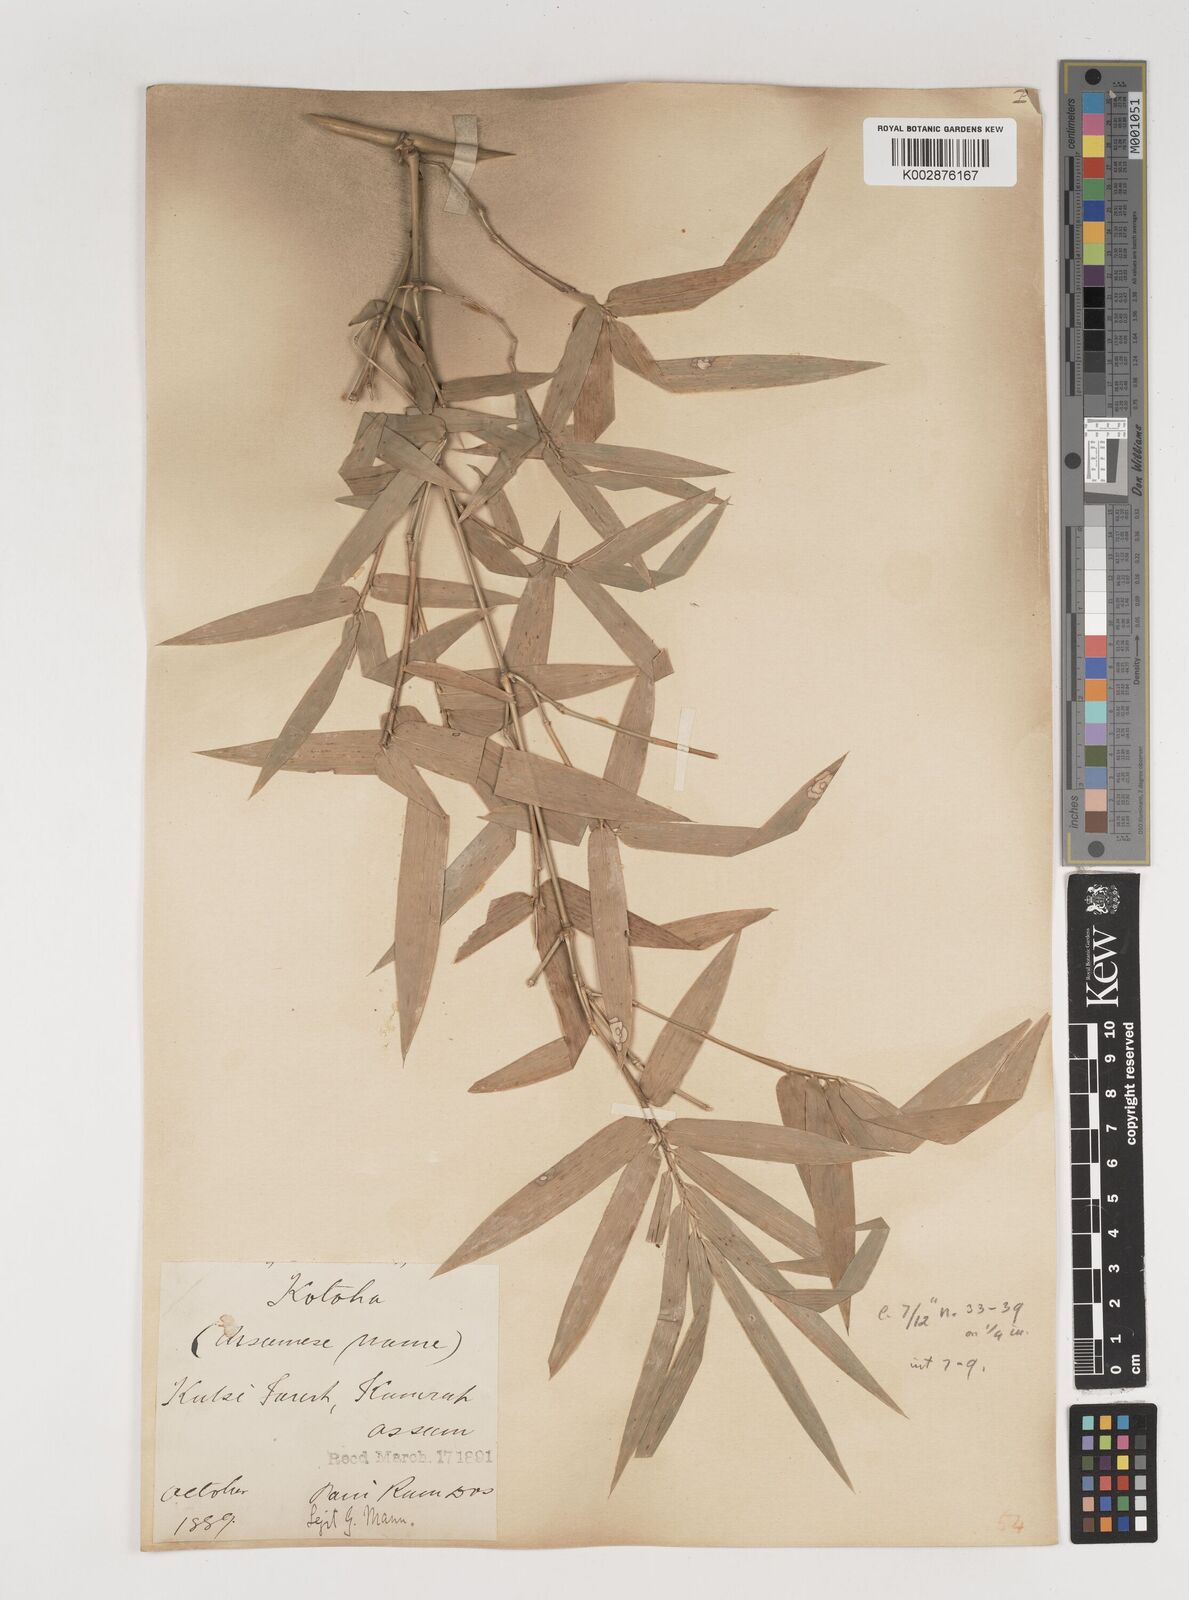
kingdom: Plantae
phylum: Tracheophyta
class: Liliopsida
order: Poales
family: Poaceae
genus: Bambusa
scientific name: Bambusa bambos
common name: Indian thorny bamboo
